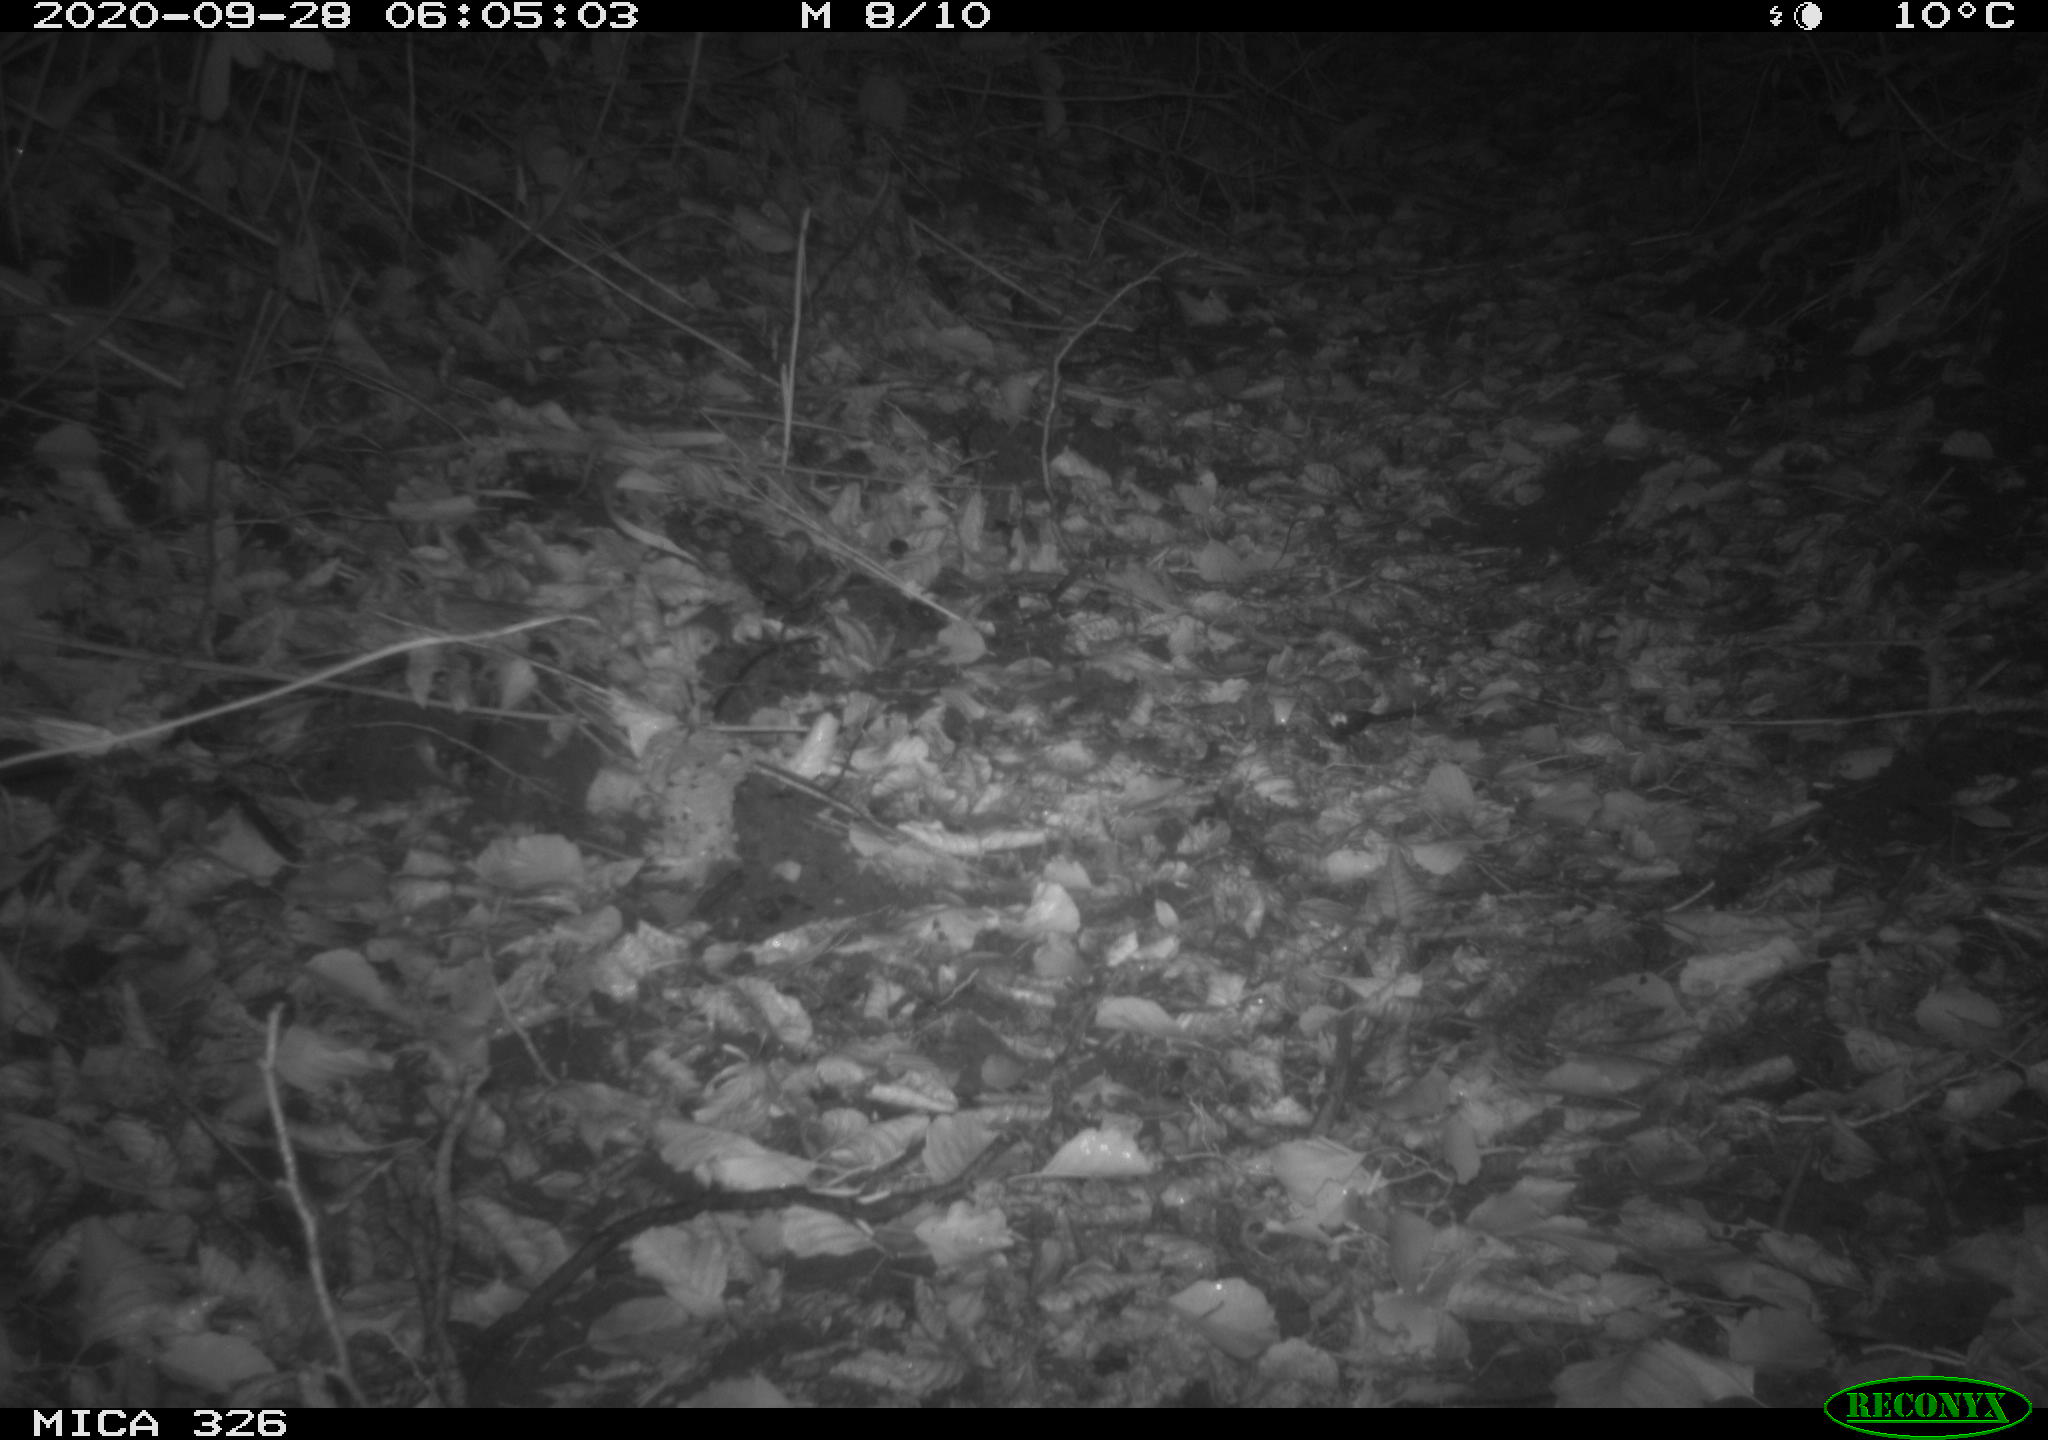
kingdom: Animalia
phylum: Chordata
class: Mammalia
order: Rodentia
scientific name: Rodentia
